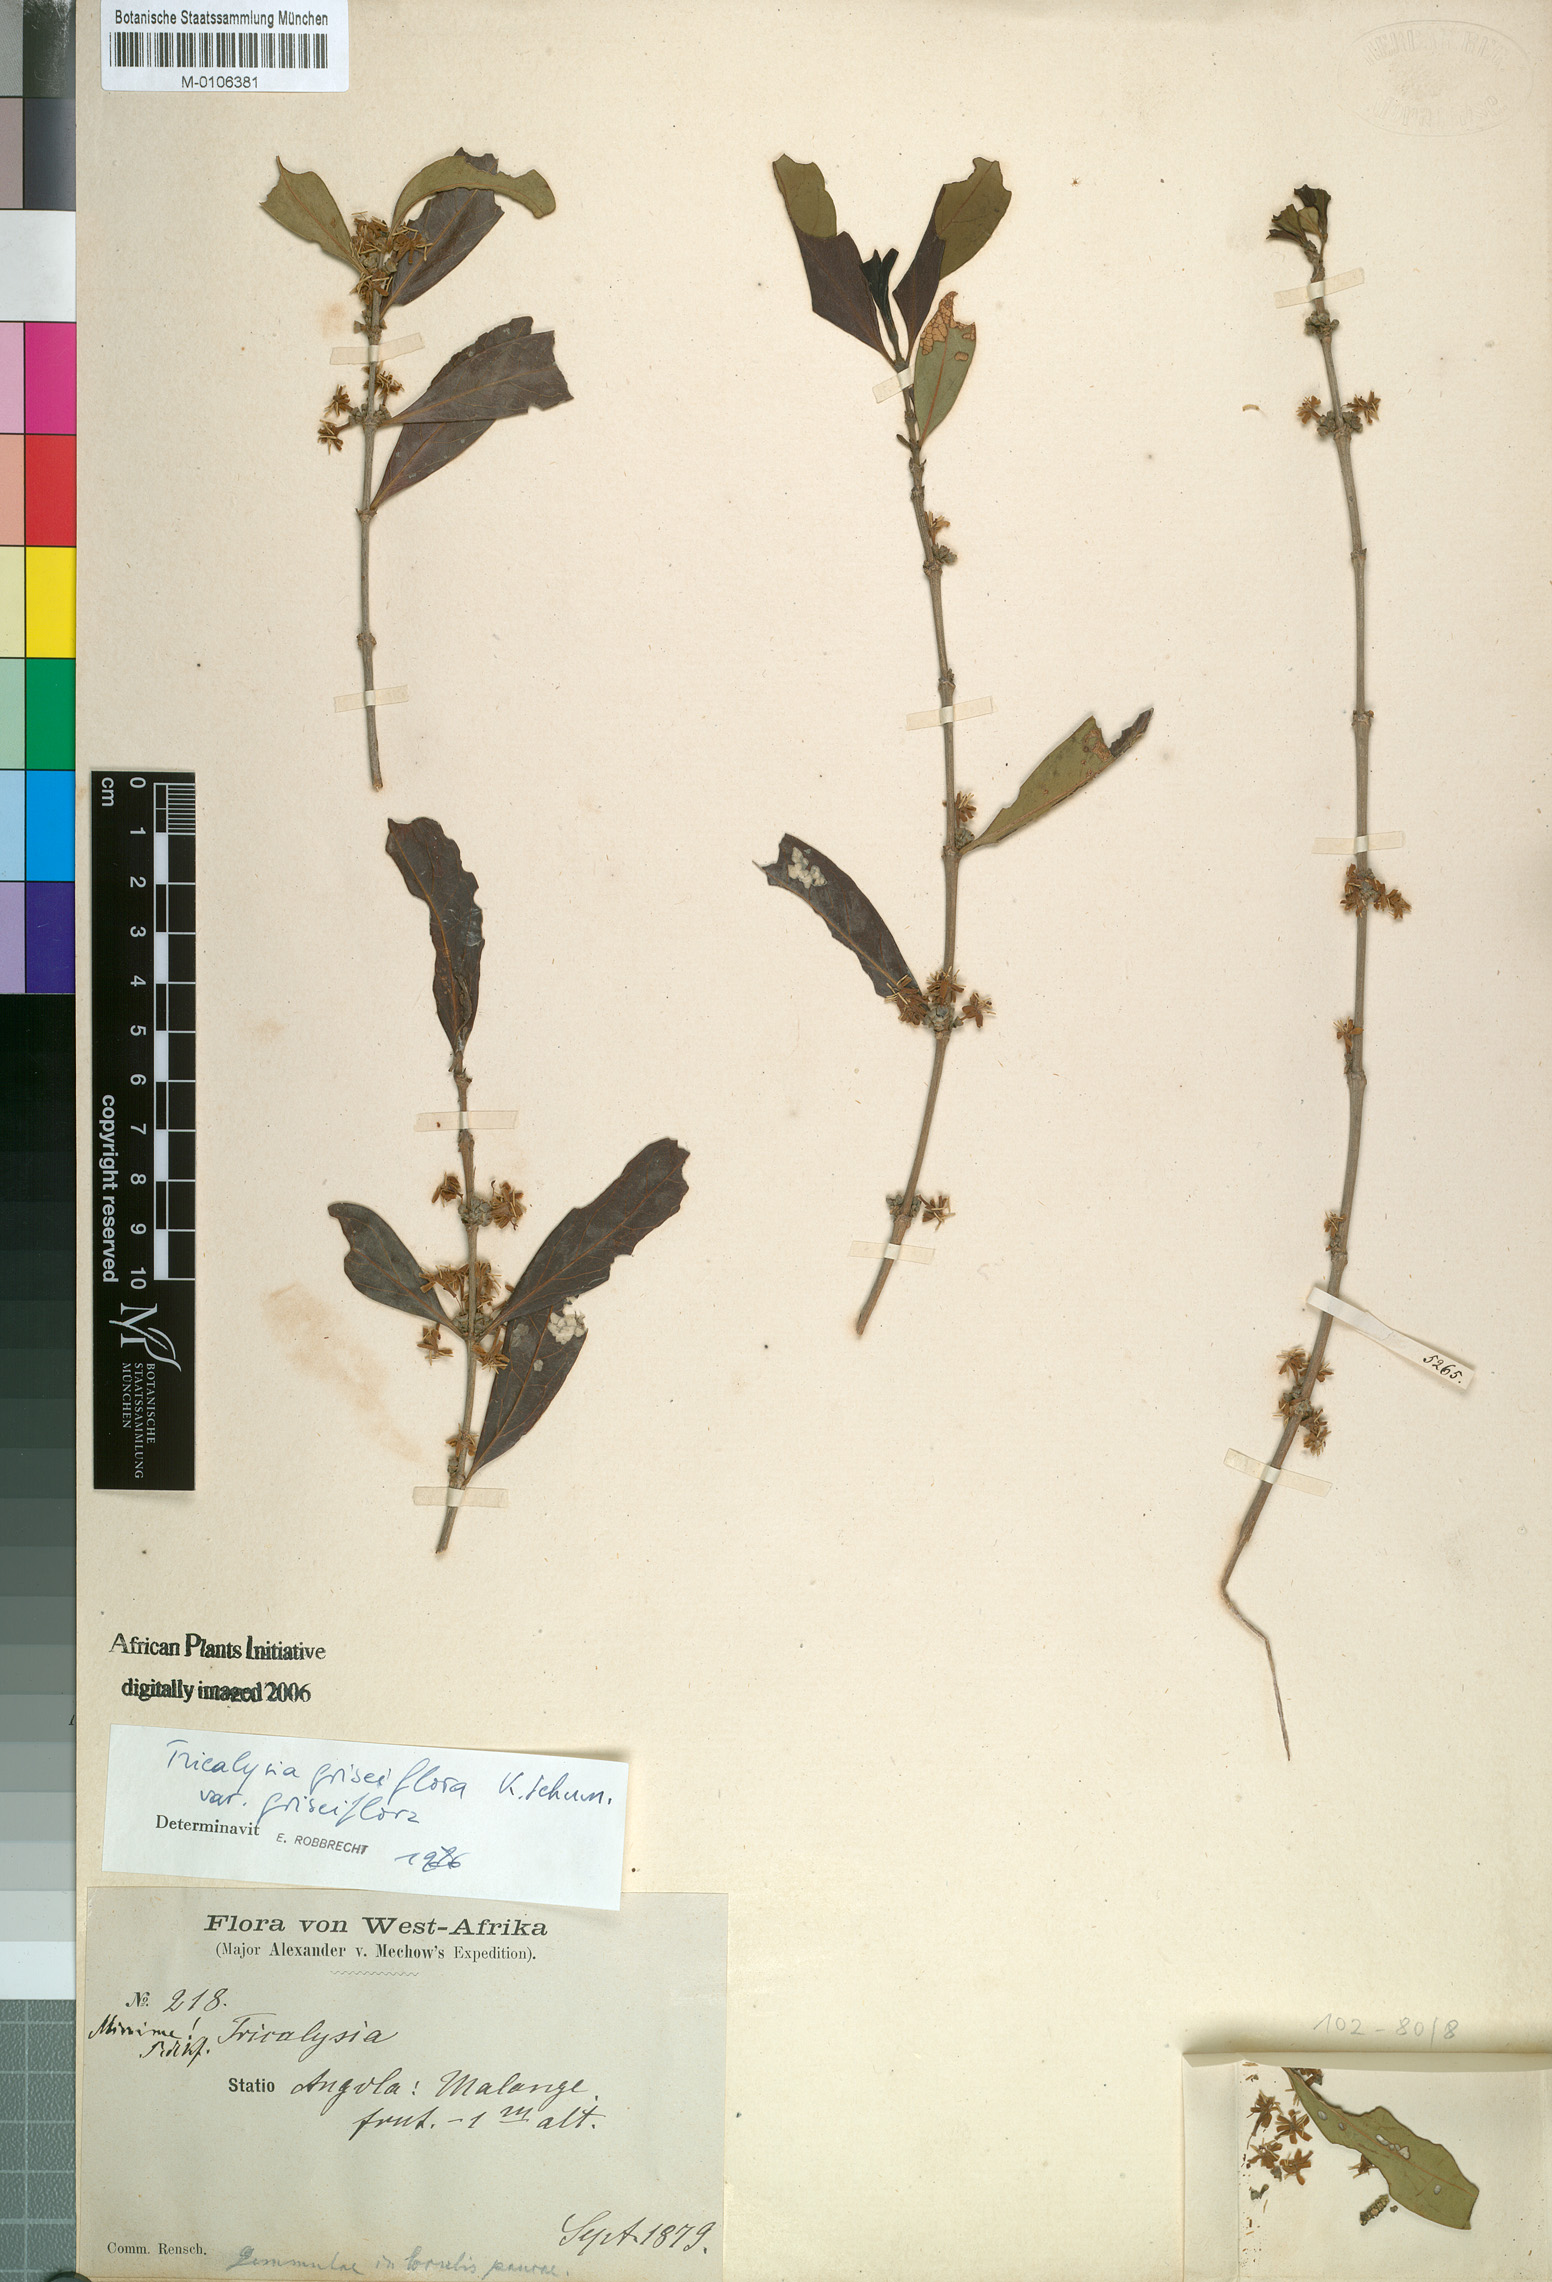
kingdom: Plantae
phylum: Tracheophyta
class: Magnoliopsida
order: Gentianales
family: Rubiaceae
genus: Tricalysia
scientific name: Tricalysia griseiflora
